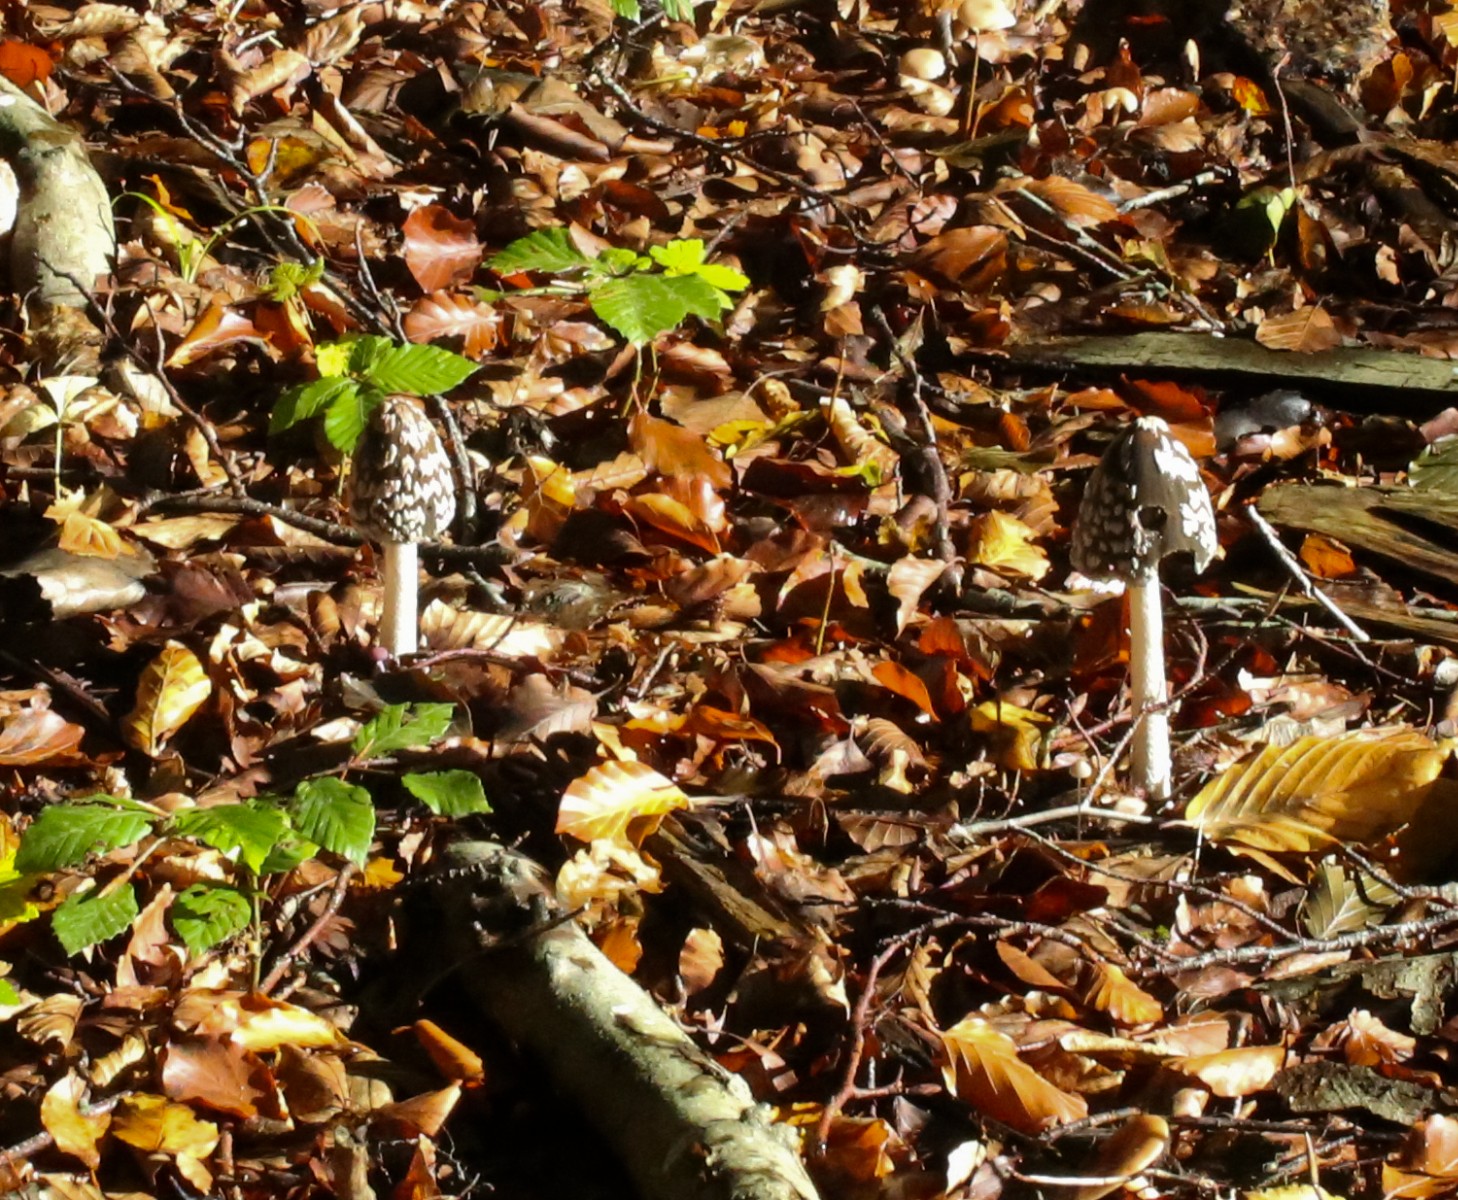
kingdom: Fungi
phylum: Basidiomycota
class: Agaricomycetes
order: Agaricales
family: Psathyrellaceae
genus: Coprinopsis
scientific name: Coprinopsis picacea
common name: skade-blækhat
